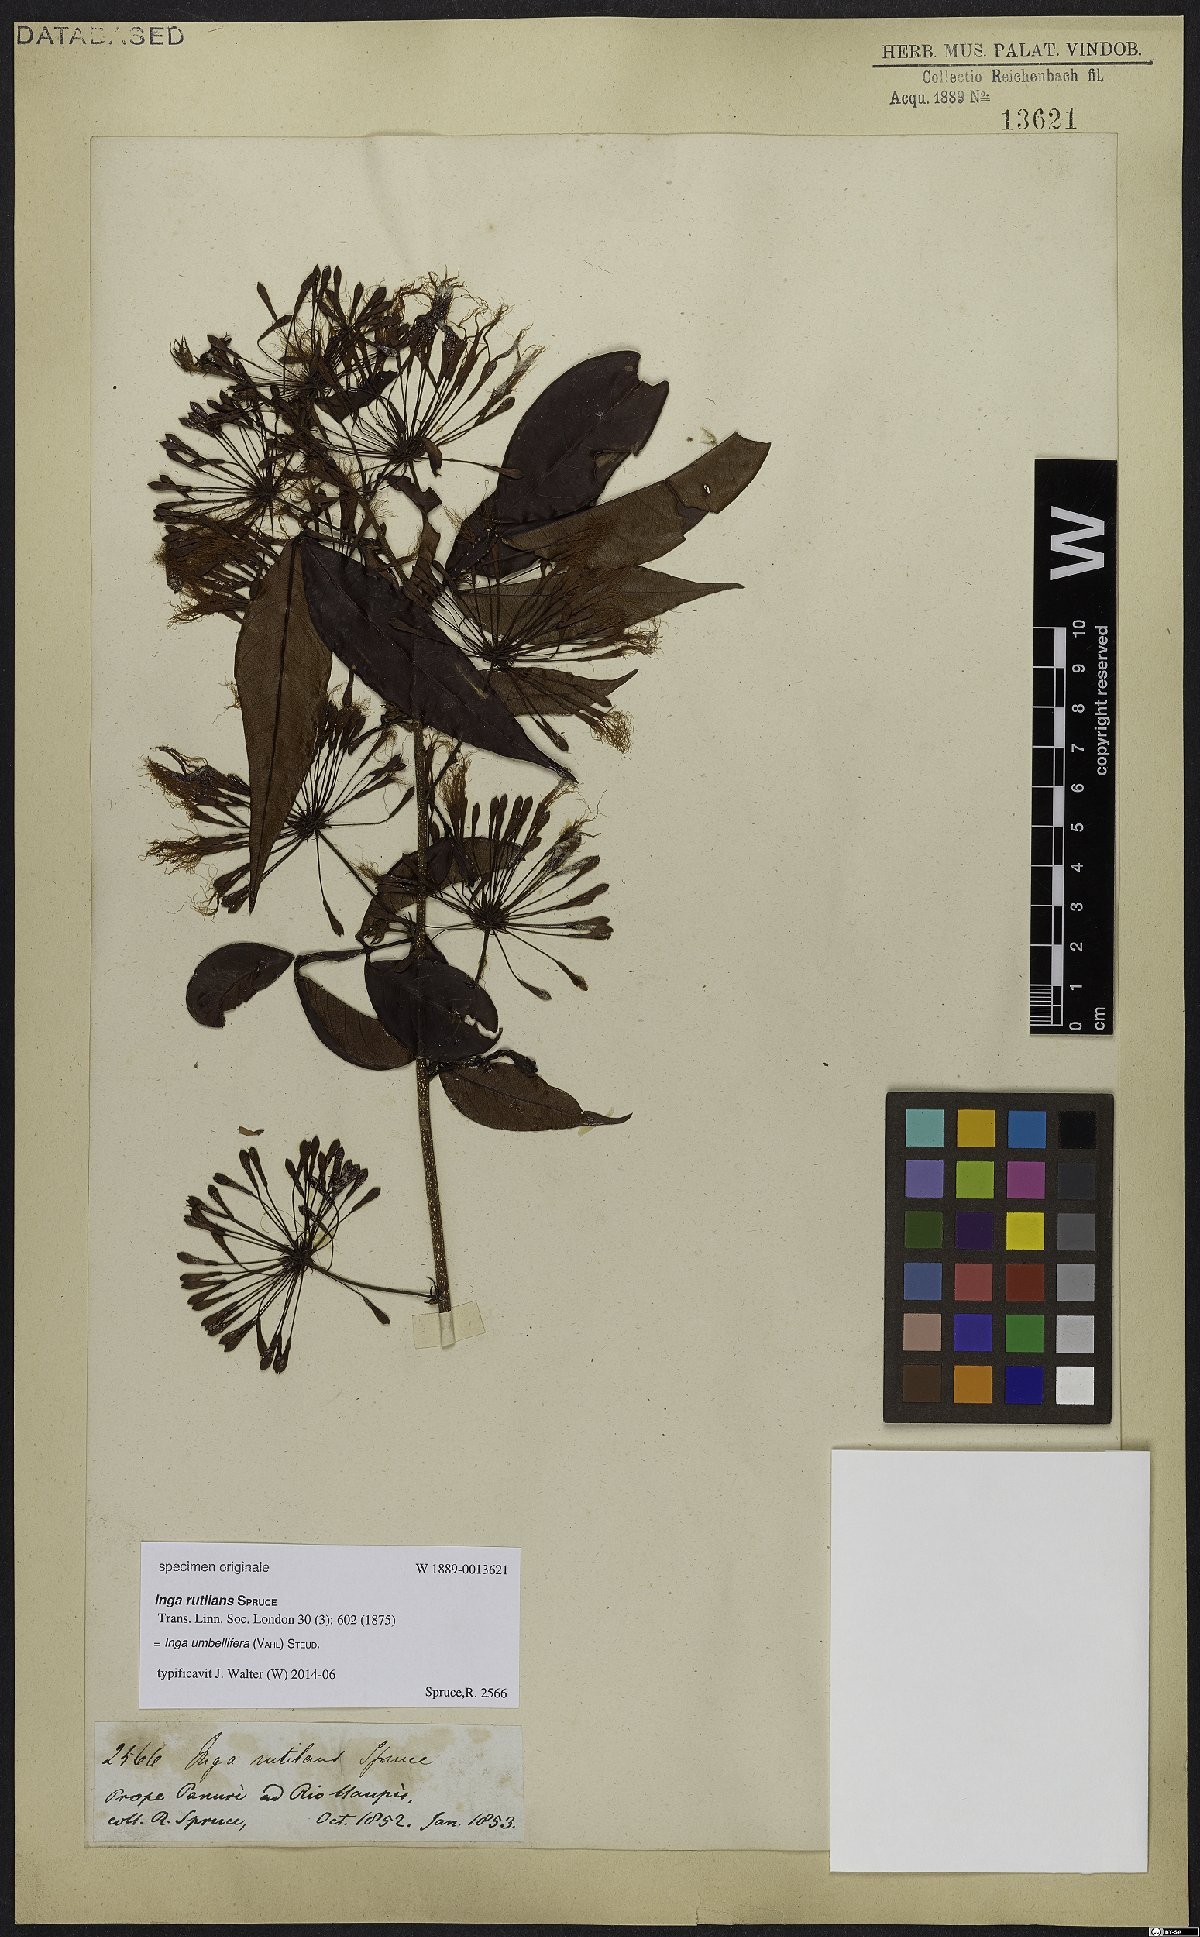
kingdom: Plantae
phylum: Tracheophyta
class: Magnoliopsida
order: Fabales
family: Fabaceae
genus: Inga
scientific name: Inga umbellifera
